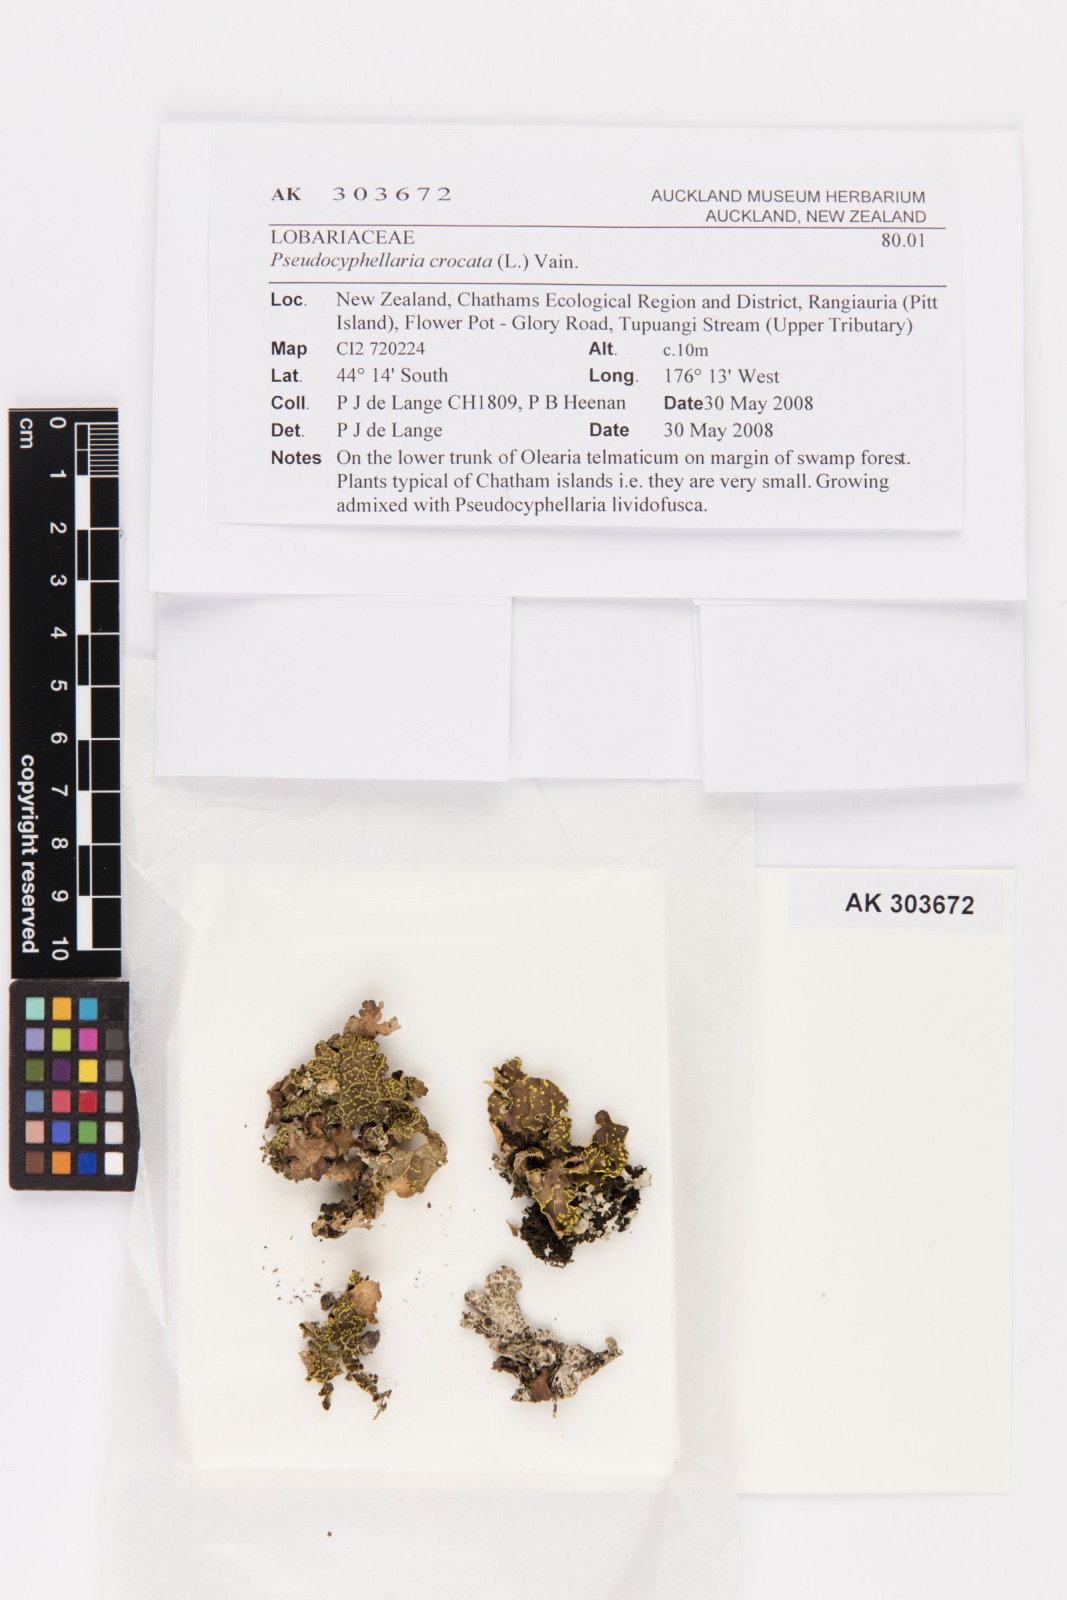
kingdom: Fungi
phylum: Ascomycota
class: Lecanoromycetes
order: Peltigerales
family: Lobariaceae
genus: Pseudocyphellaria
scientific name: Pseudocyphellaria crocata
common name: Golden specklebelly
